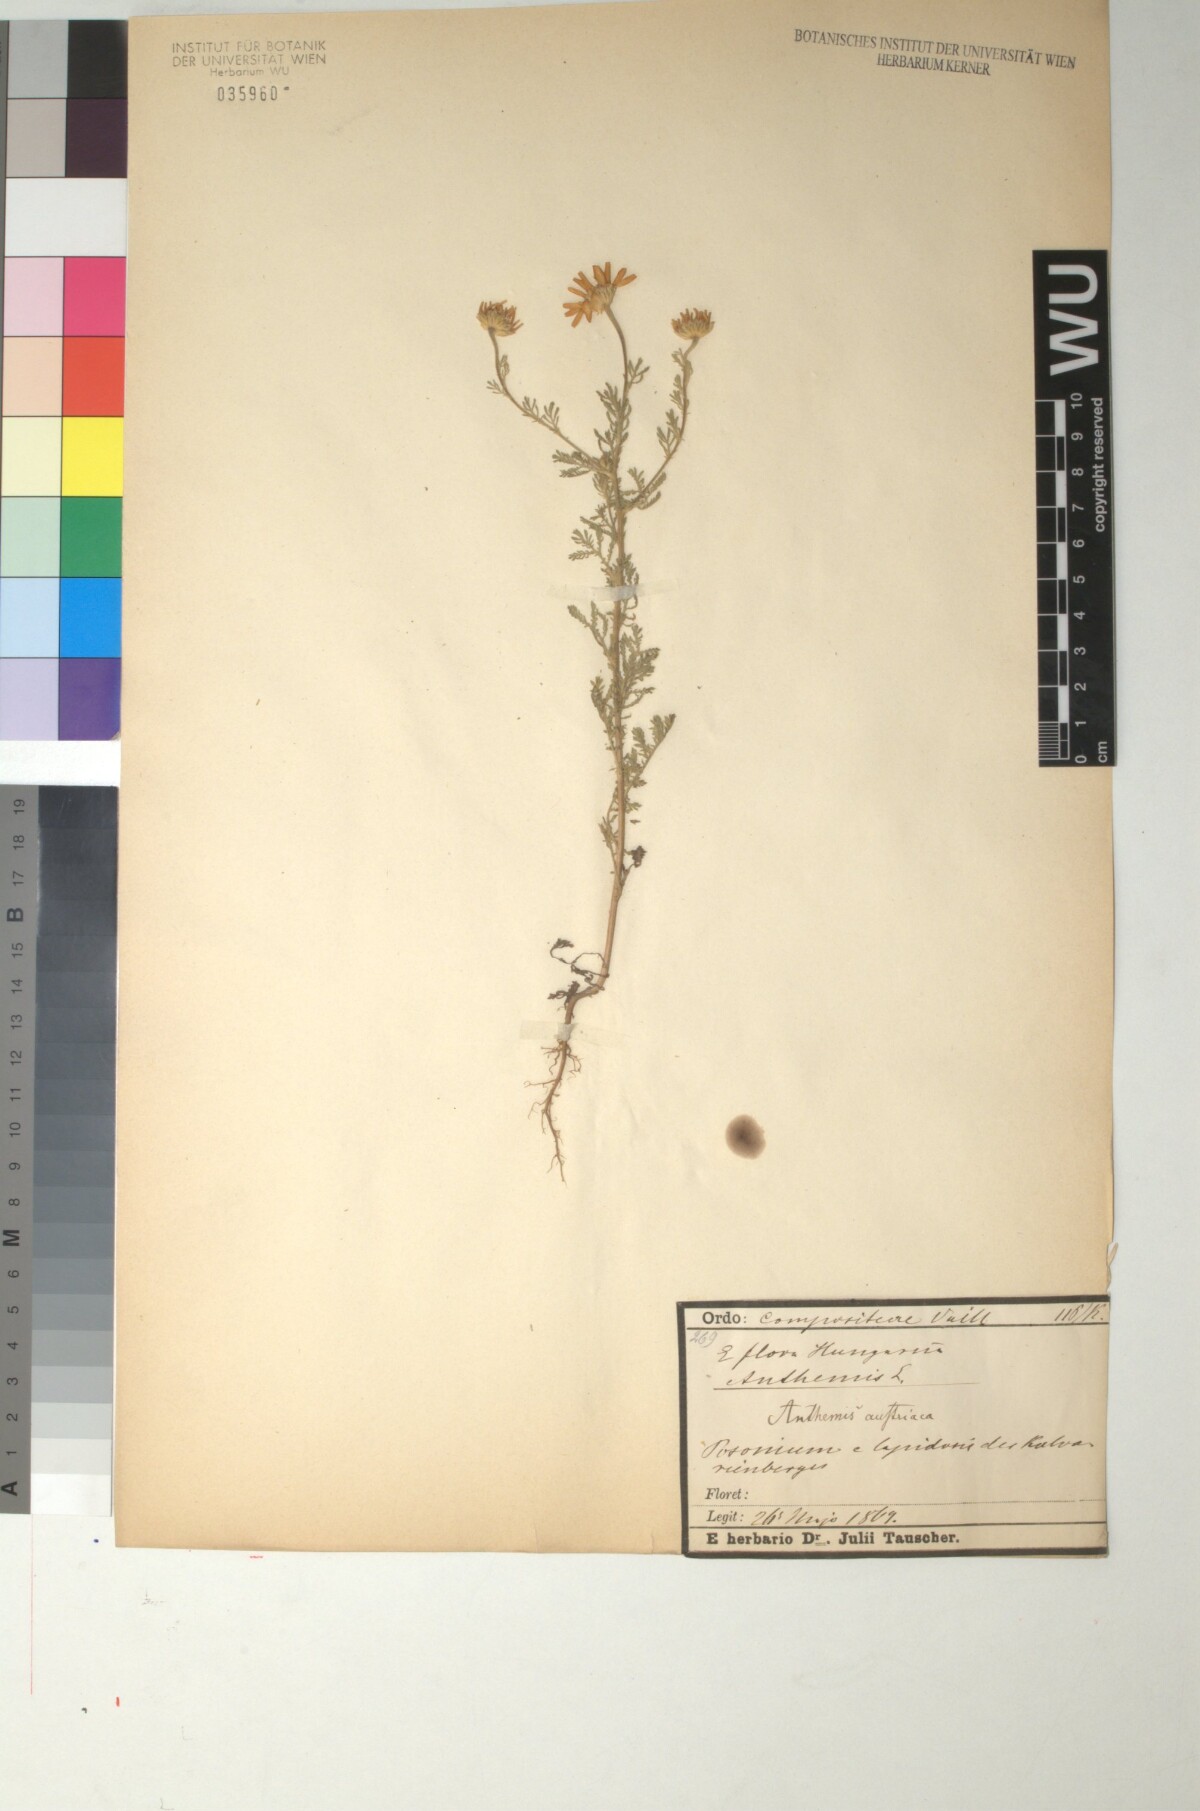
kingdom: Plantae
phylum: Tracheophyta
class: Magnoliopsida
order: Asterales
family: Asteraceae
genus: Cota
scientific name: Cota austriaca
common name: Austrian chamomile
